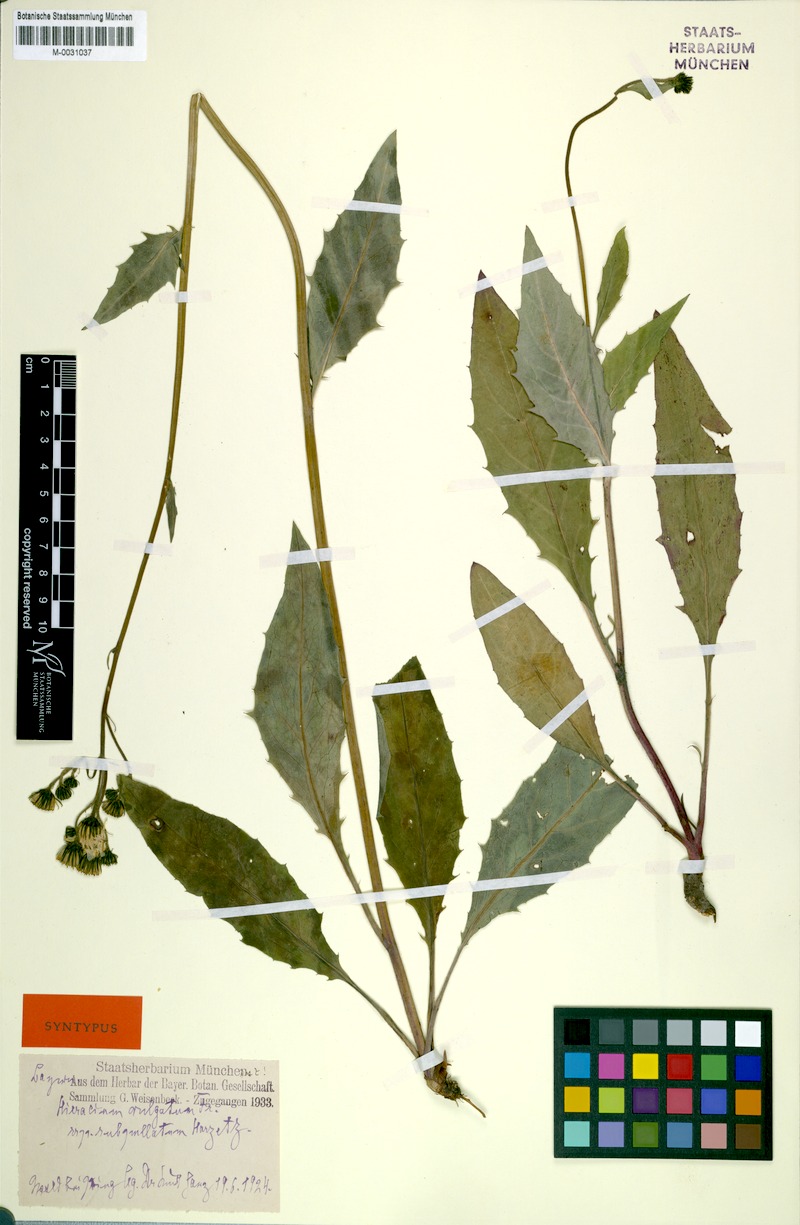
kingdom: Plantae
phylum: Tracheophyta
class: Magnoliopsida
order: Asterales
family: Asteraceae
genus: Hieracium
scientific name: Hieracium lachenalii
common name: Common hawkweed
